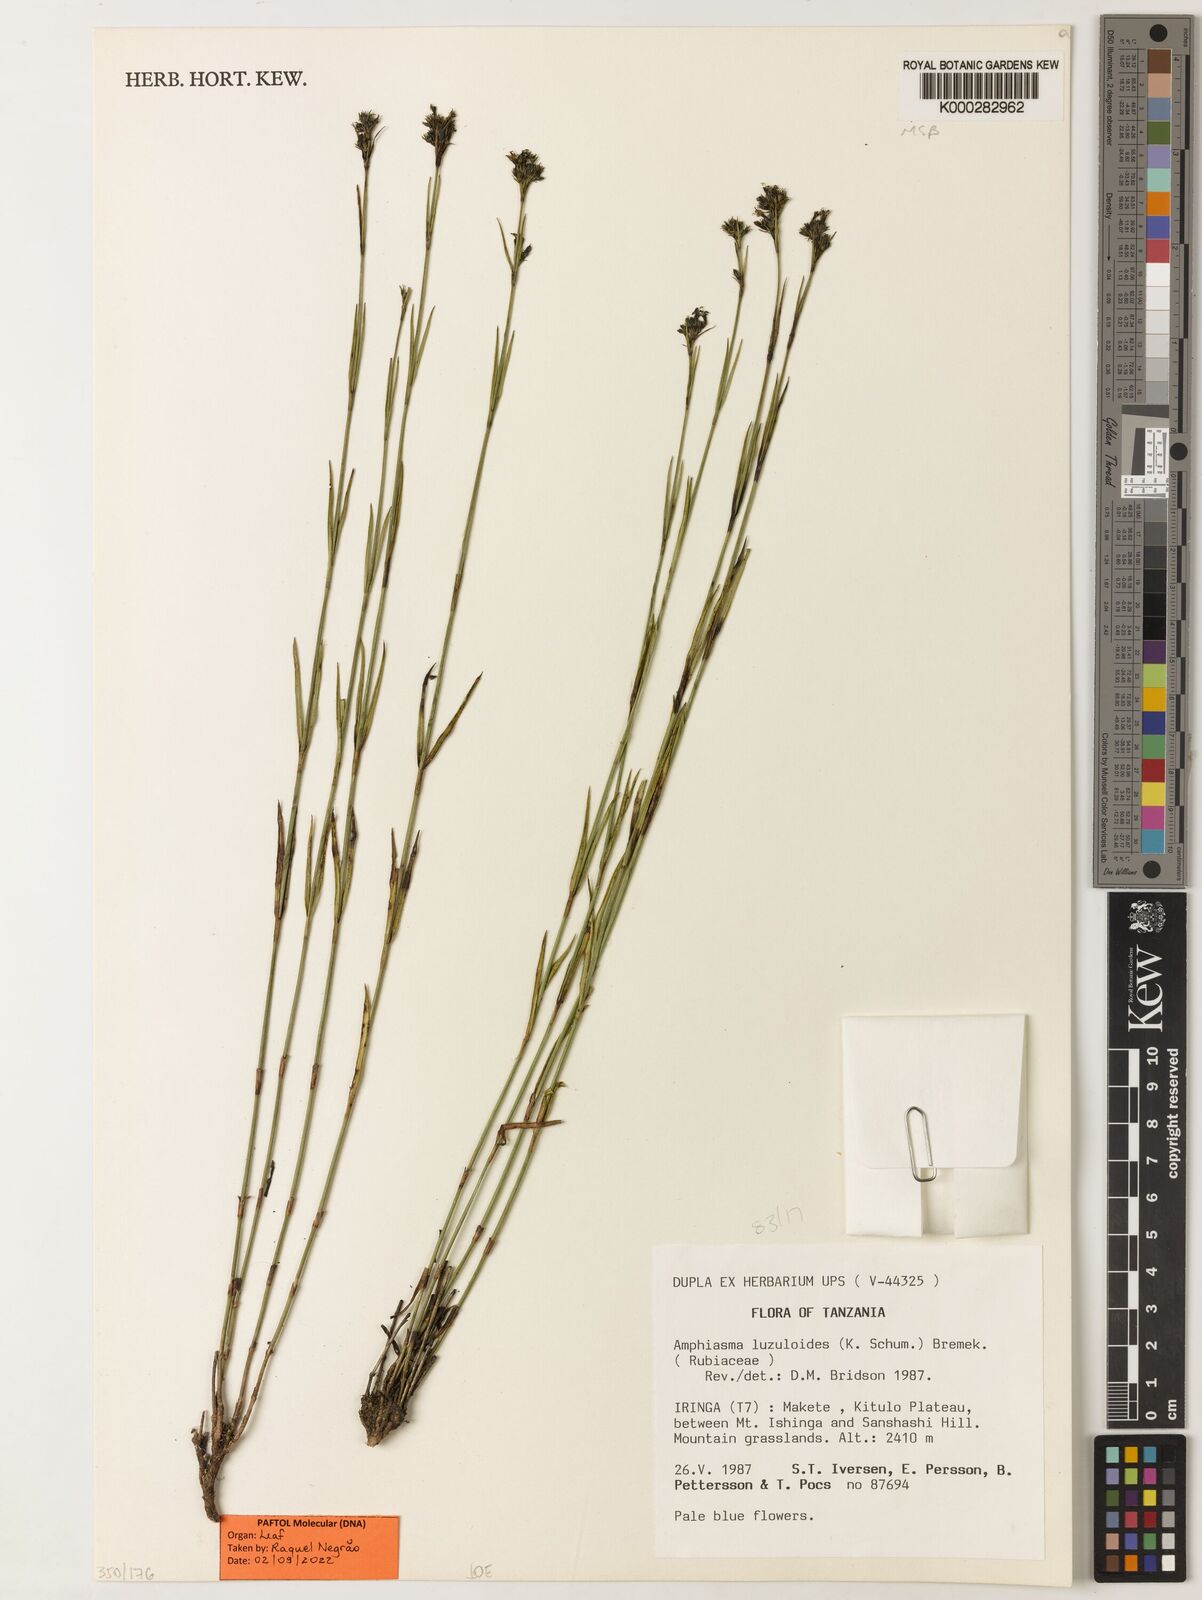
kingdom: Plantae
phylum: Tracheophyta
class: Magnoliopsida
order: Gentianales
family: Rubiaceae
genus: Amphiasma
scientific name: Amphiasma luzuloides
